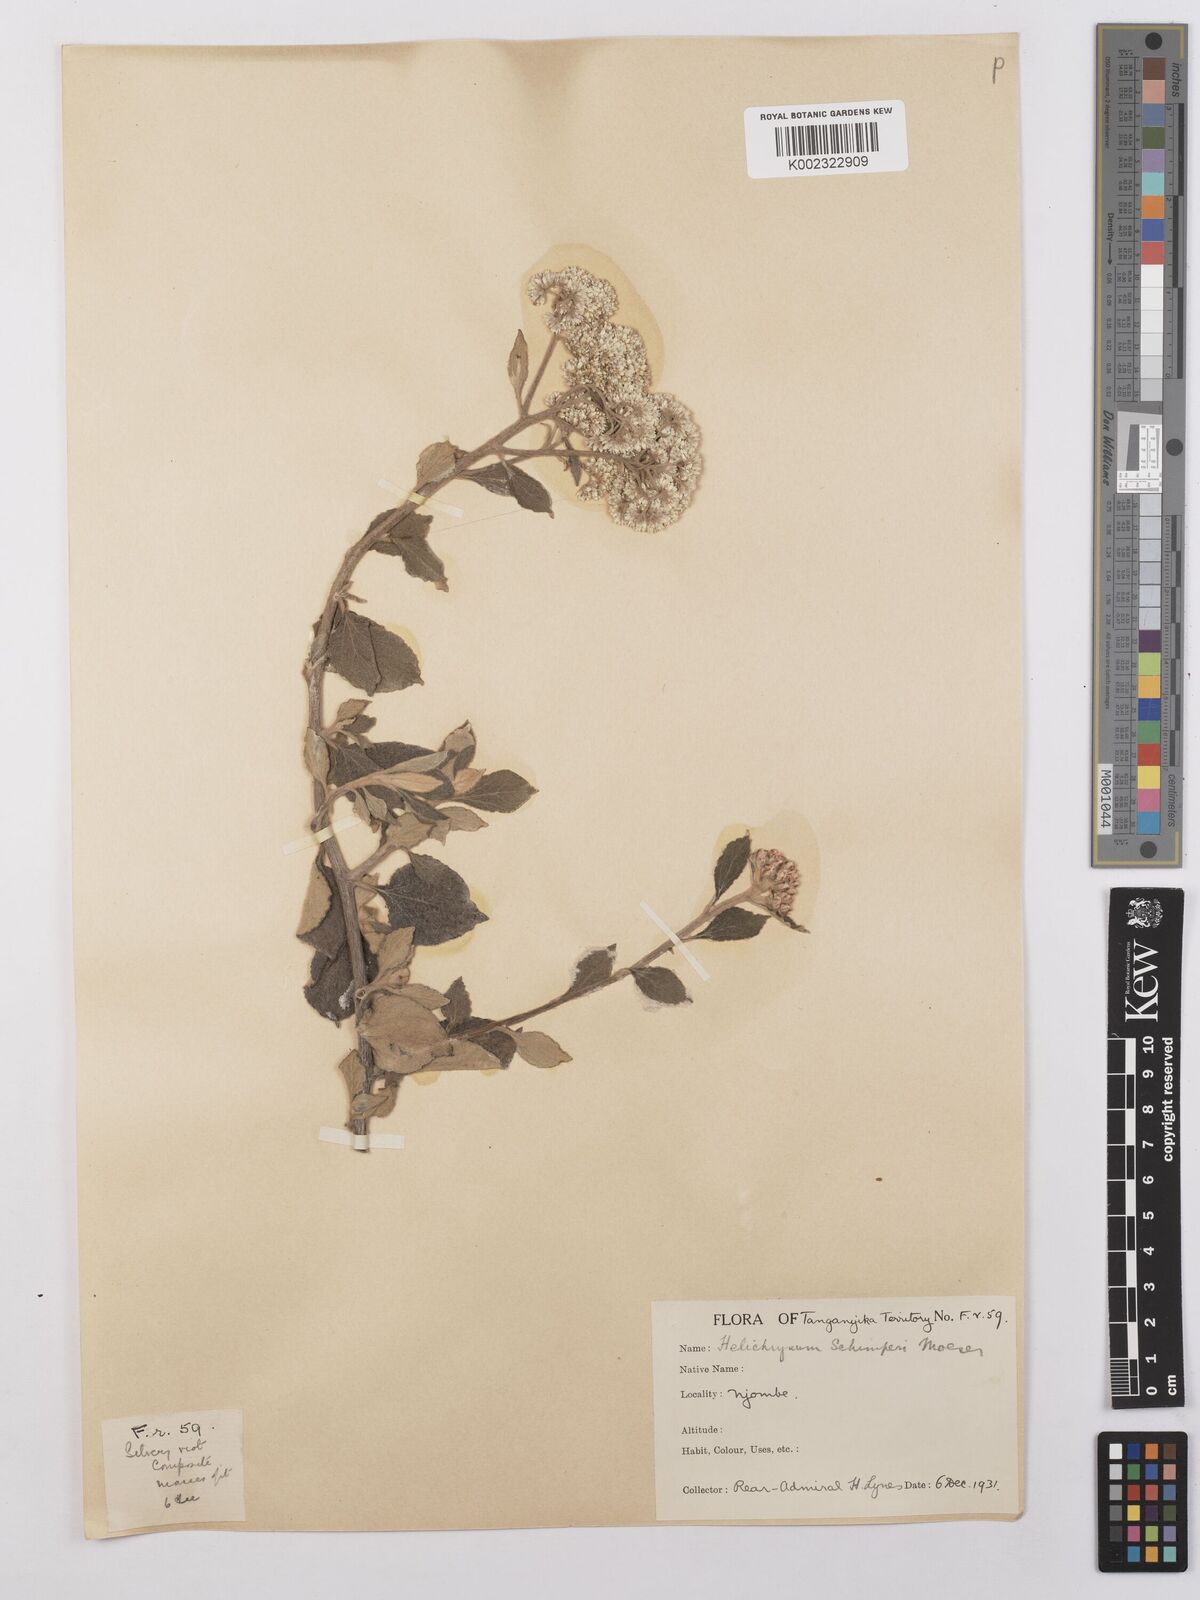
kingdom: Plantae
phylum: Tracheophyta
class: Magnoliopsida
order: Asterales
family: Asteraceae
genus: Helichrysum
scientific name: Helichrysum schimperi
